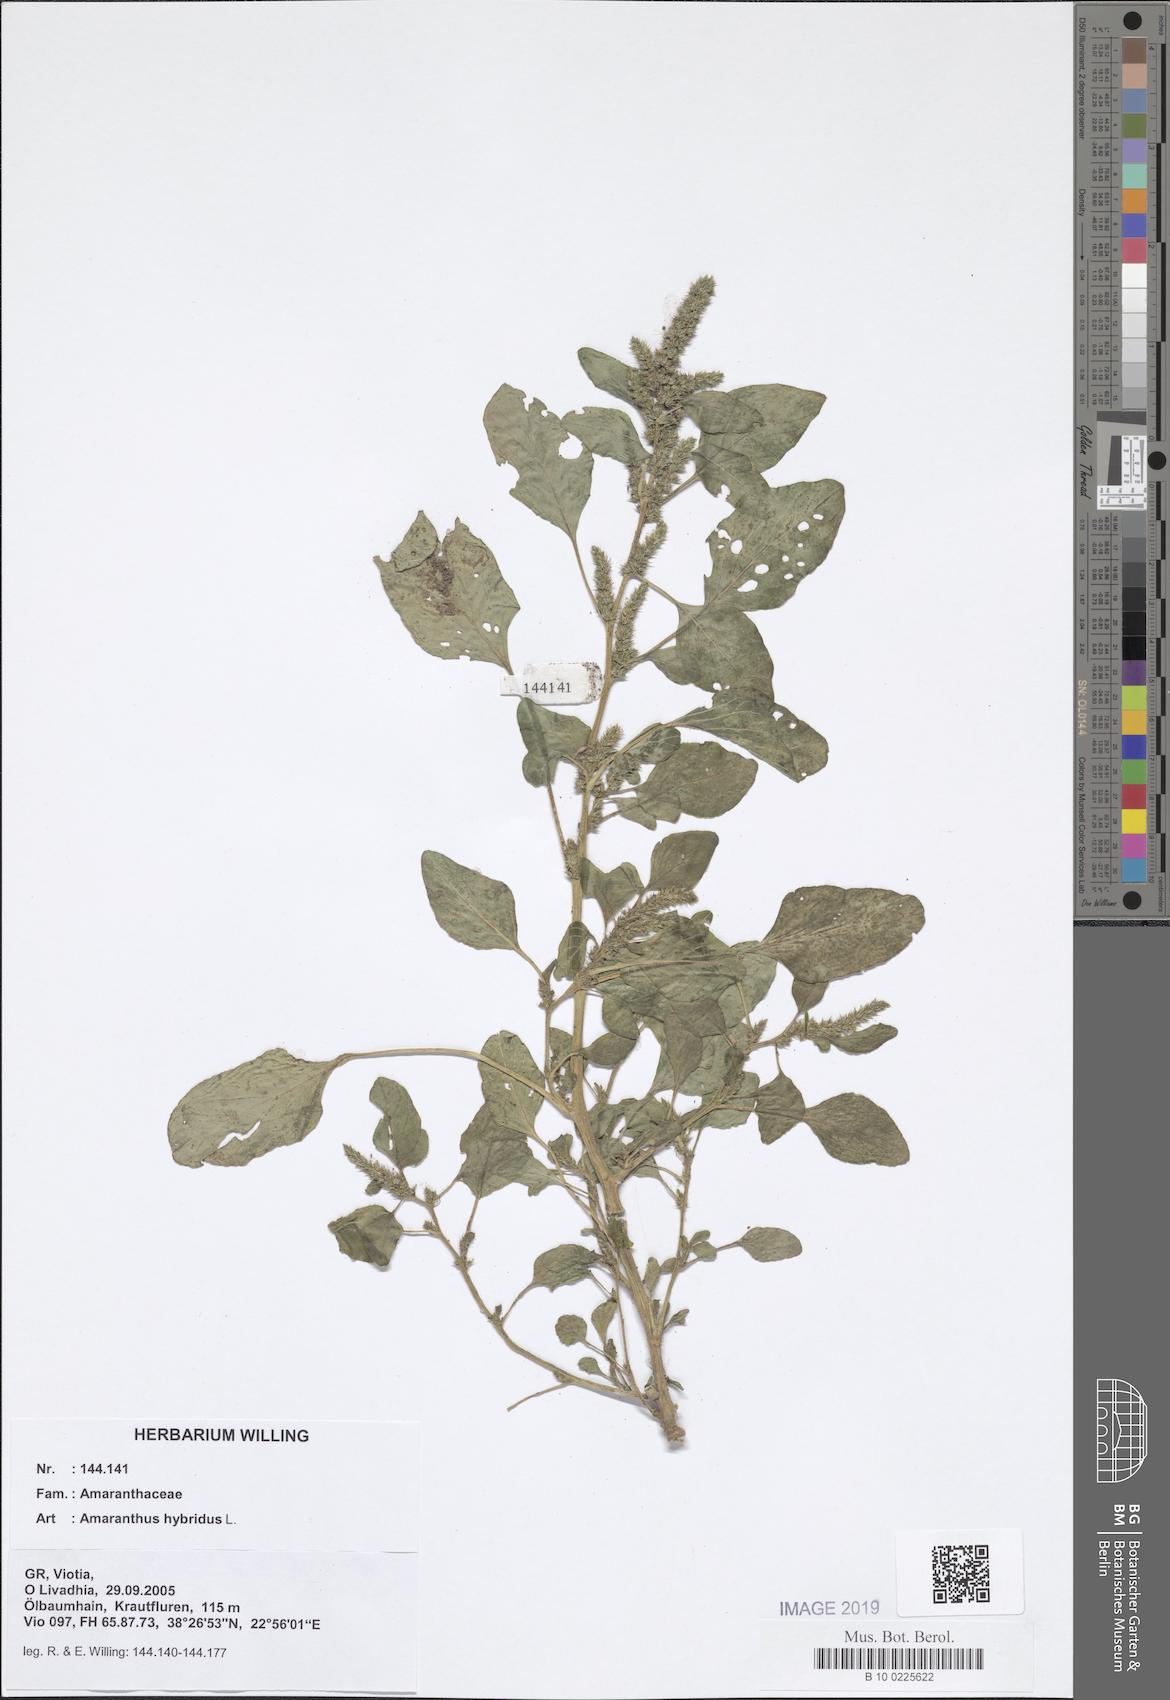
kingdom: Plantae
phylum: Tracheophyta
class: Magnoliopsida
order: Caryophyllales
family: Amaranthaceae
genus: Amaranthus
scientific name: Amaranthus hybridus
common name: Green amaranth
